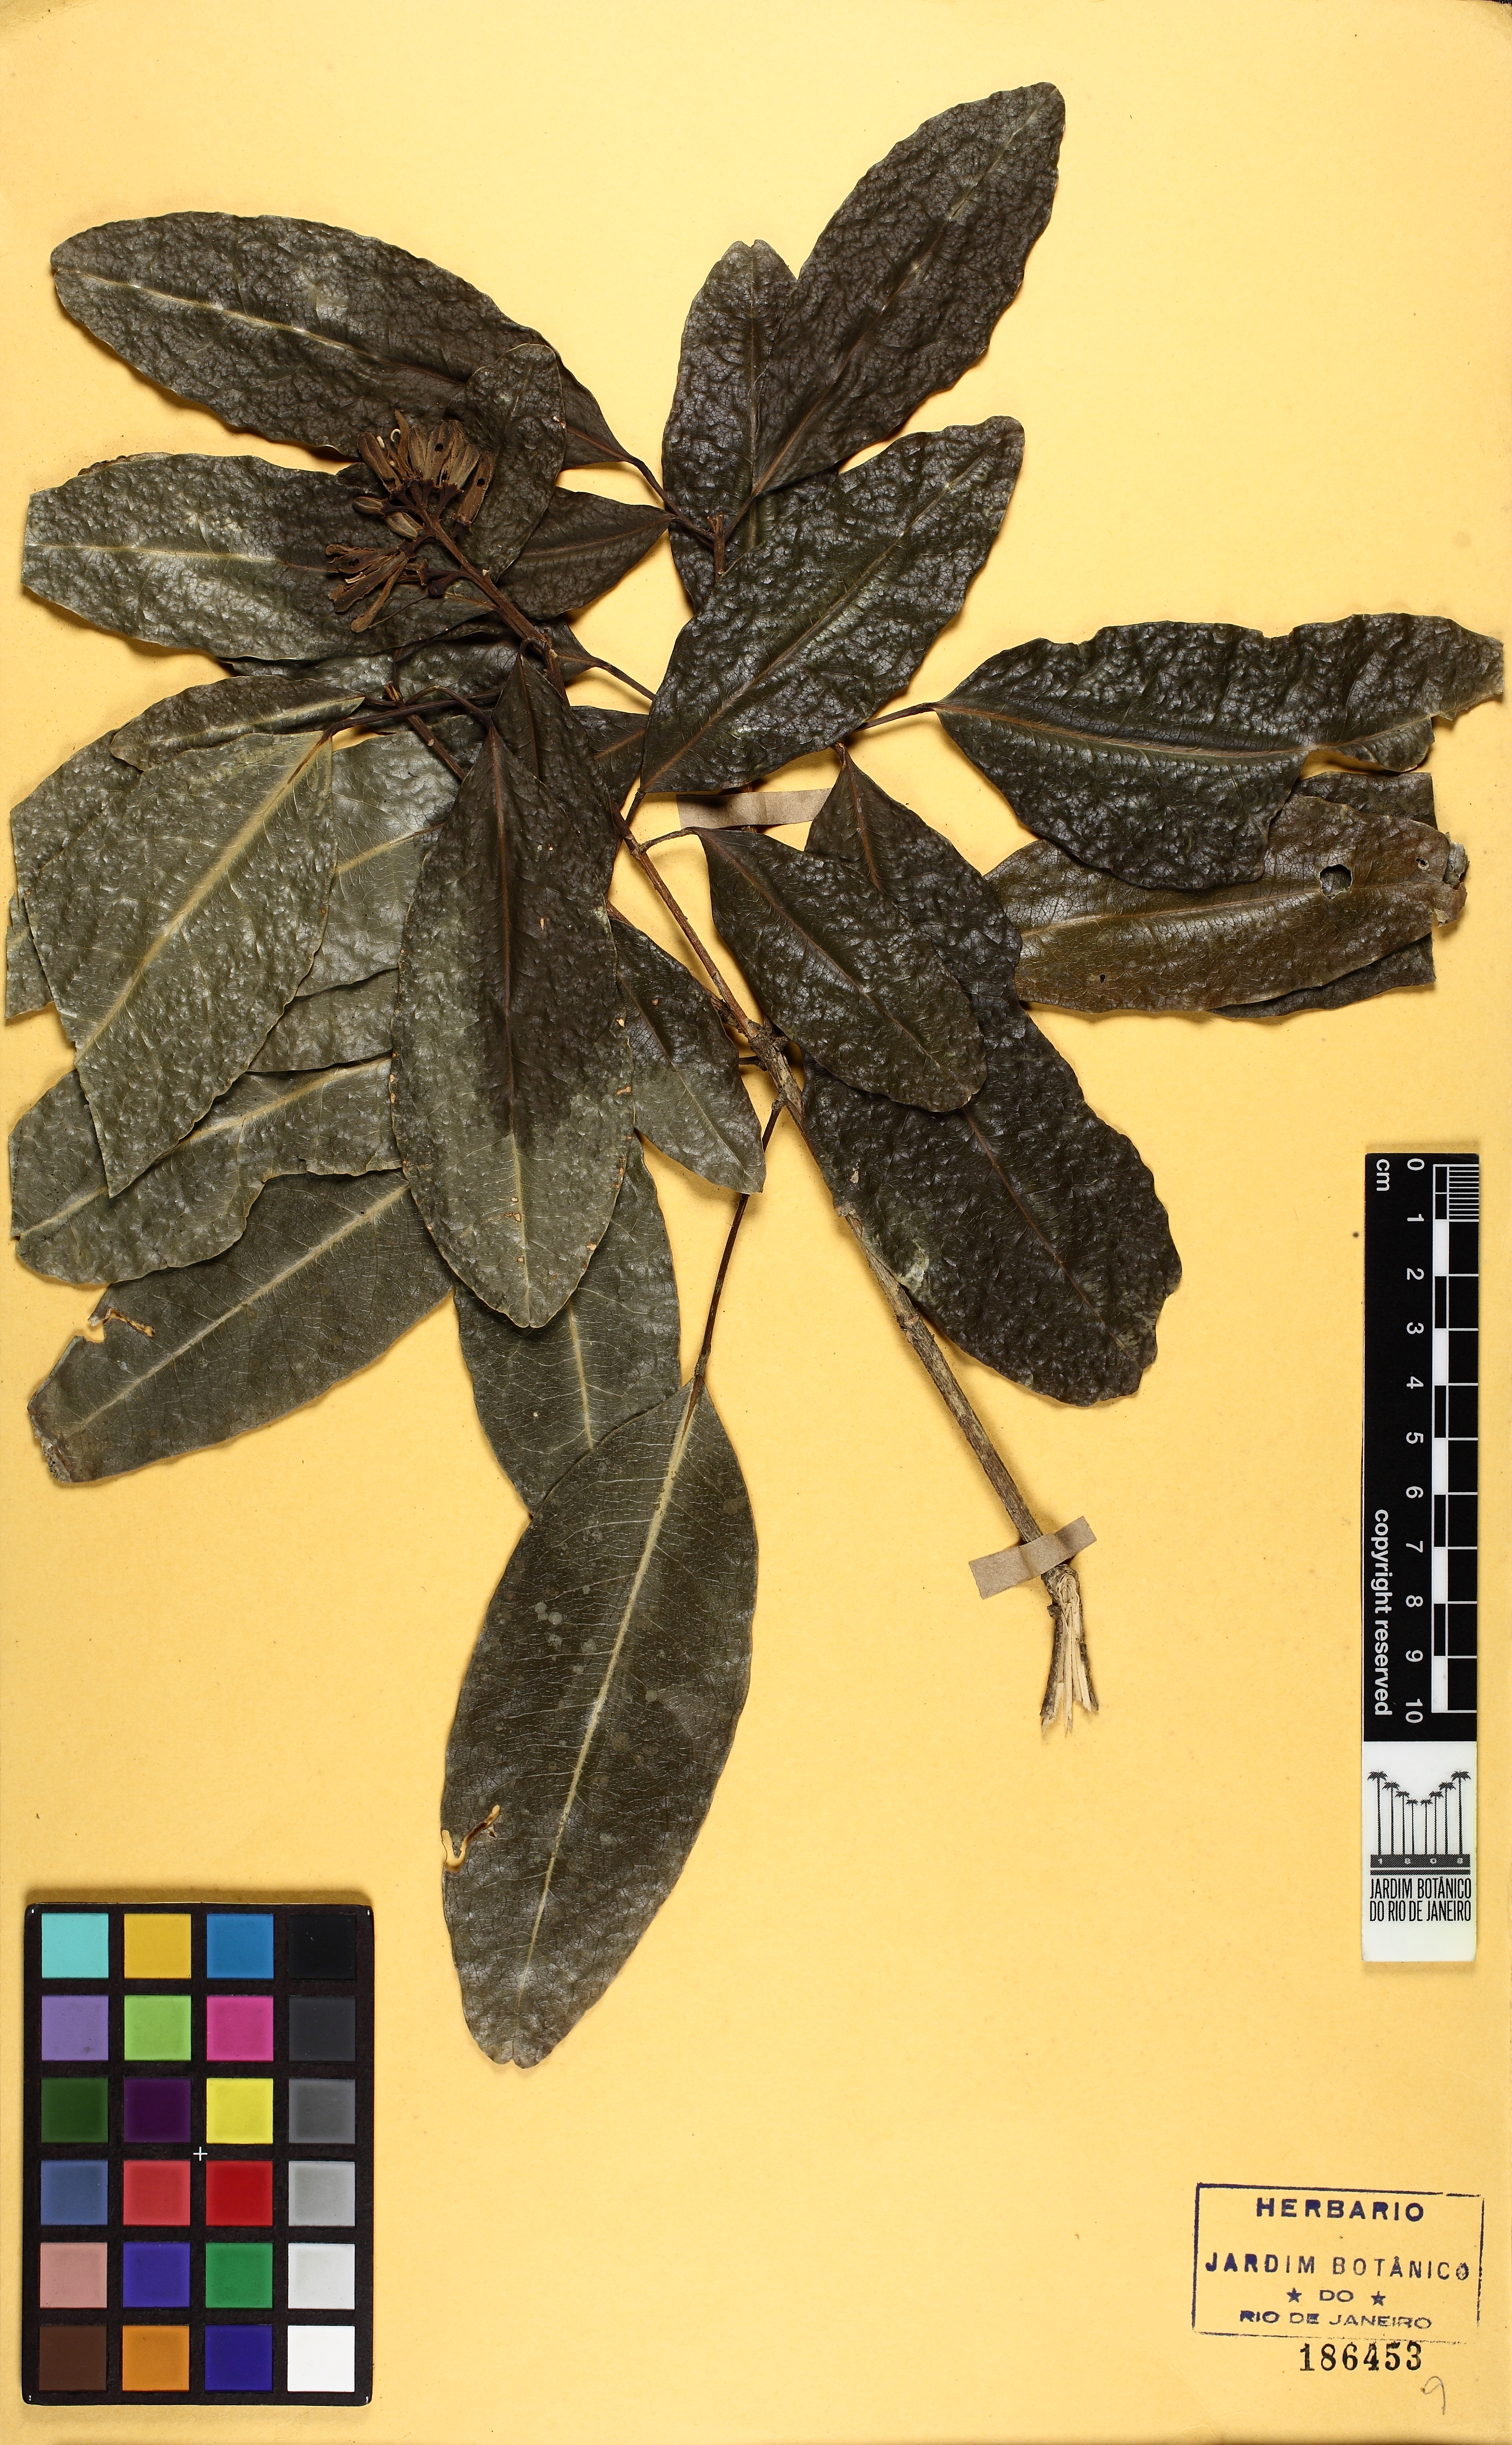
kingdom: Plantae
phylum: Tracheophyta
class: Magnoliopsida
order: Sapindales
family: Rutaceae
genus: Conchocarpus
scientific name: Conchocarpus ruber
